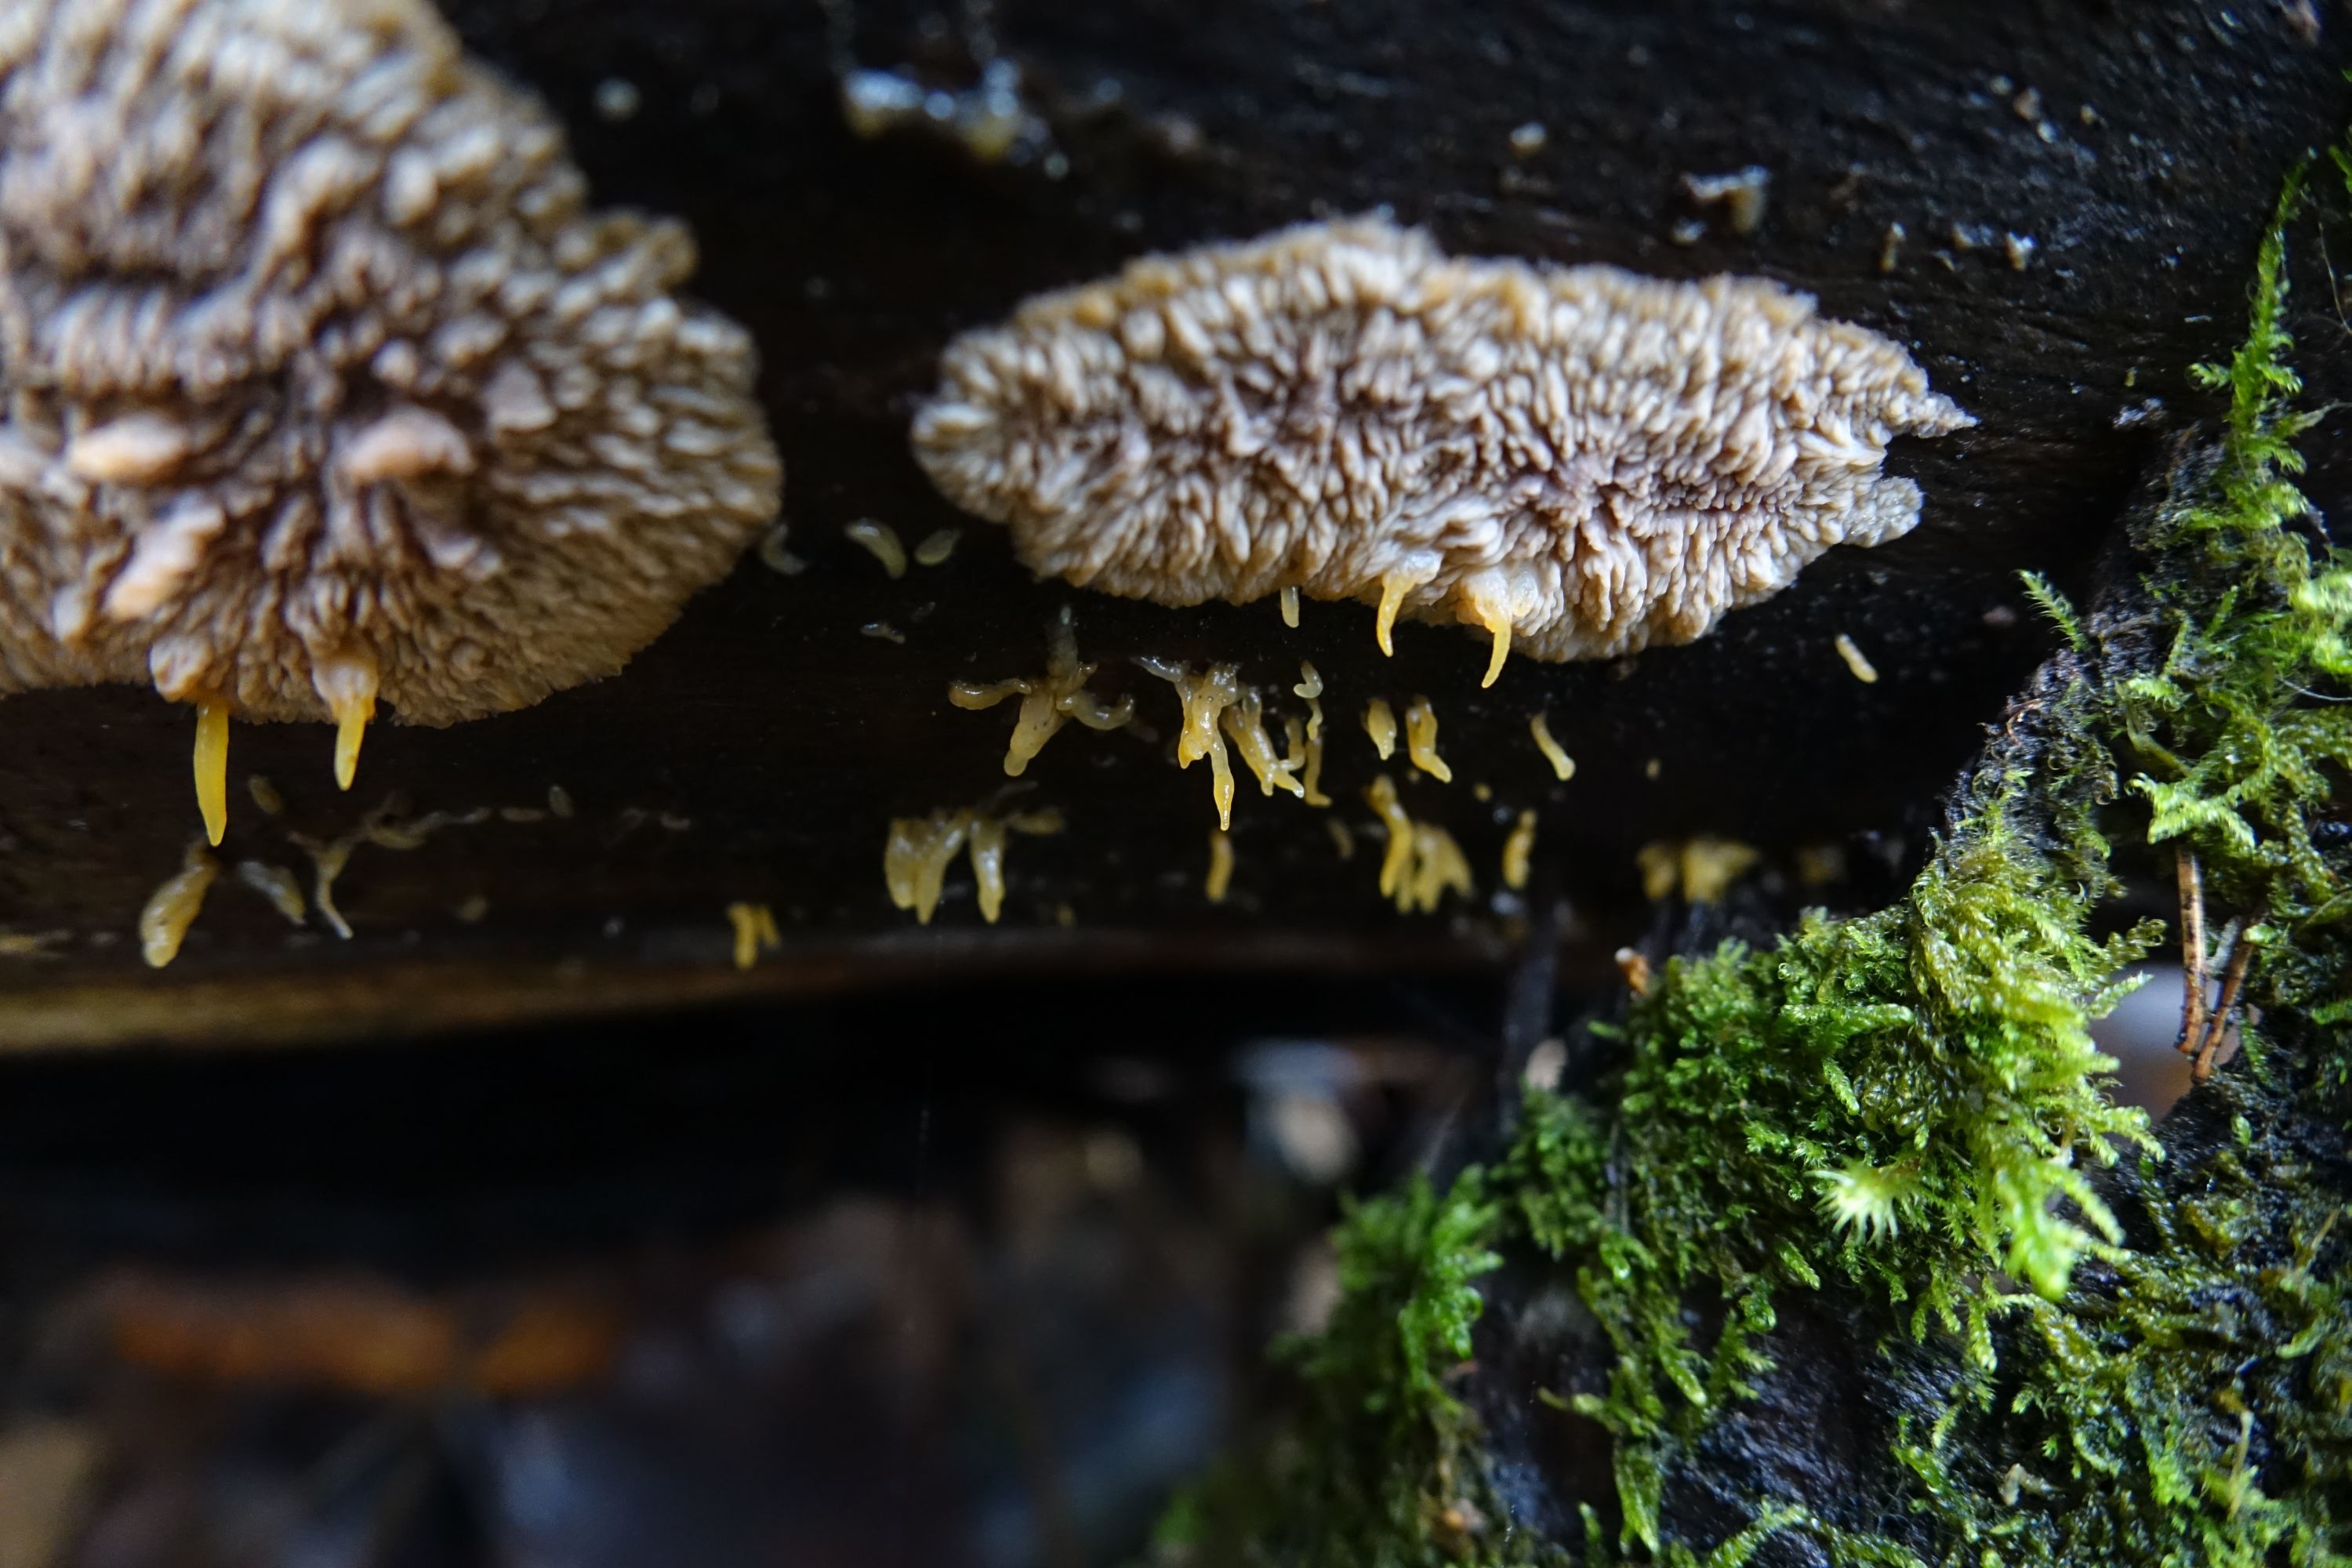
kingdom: Fungi
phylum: Basidiomycota
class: Dacrymycetes
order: Dacrymycetales
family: Dacrymycetaceae
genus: Calocera
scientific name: Calocera cornea
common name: Small stagshorn
